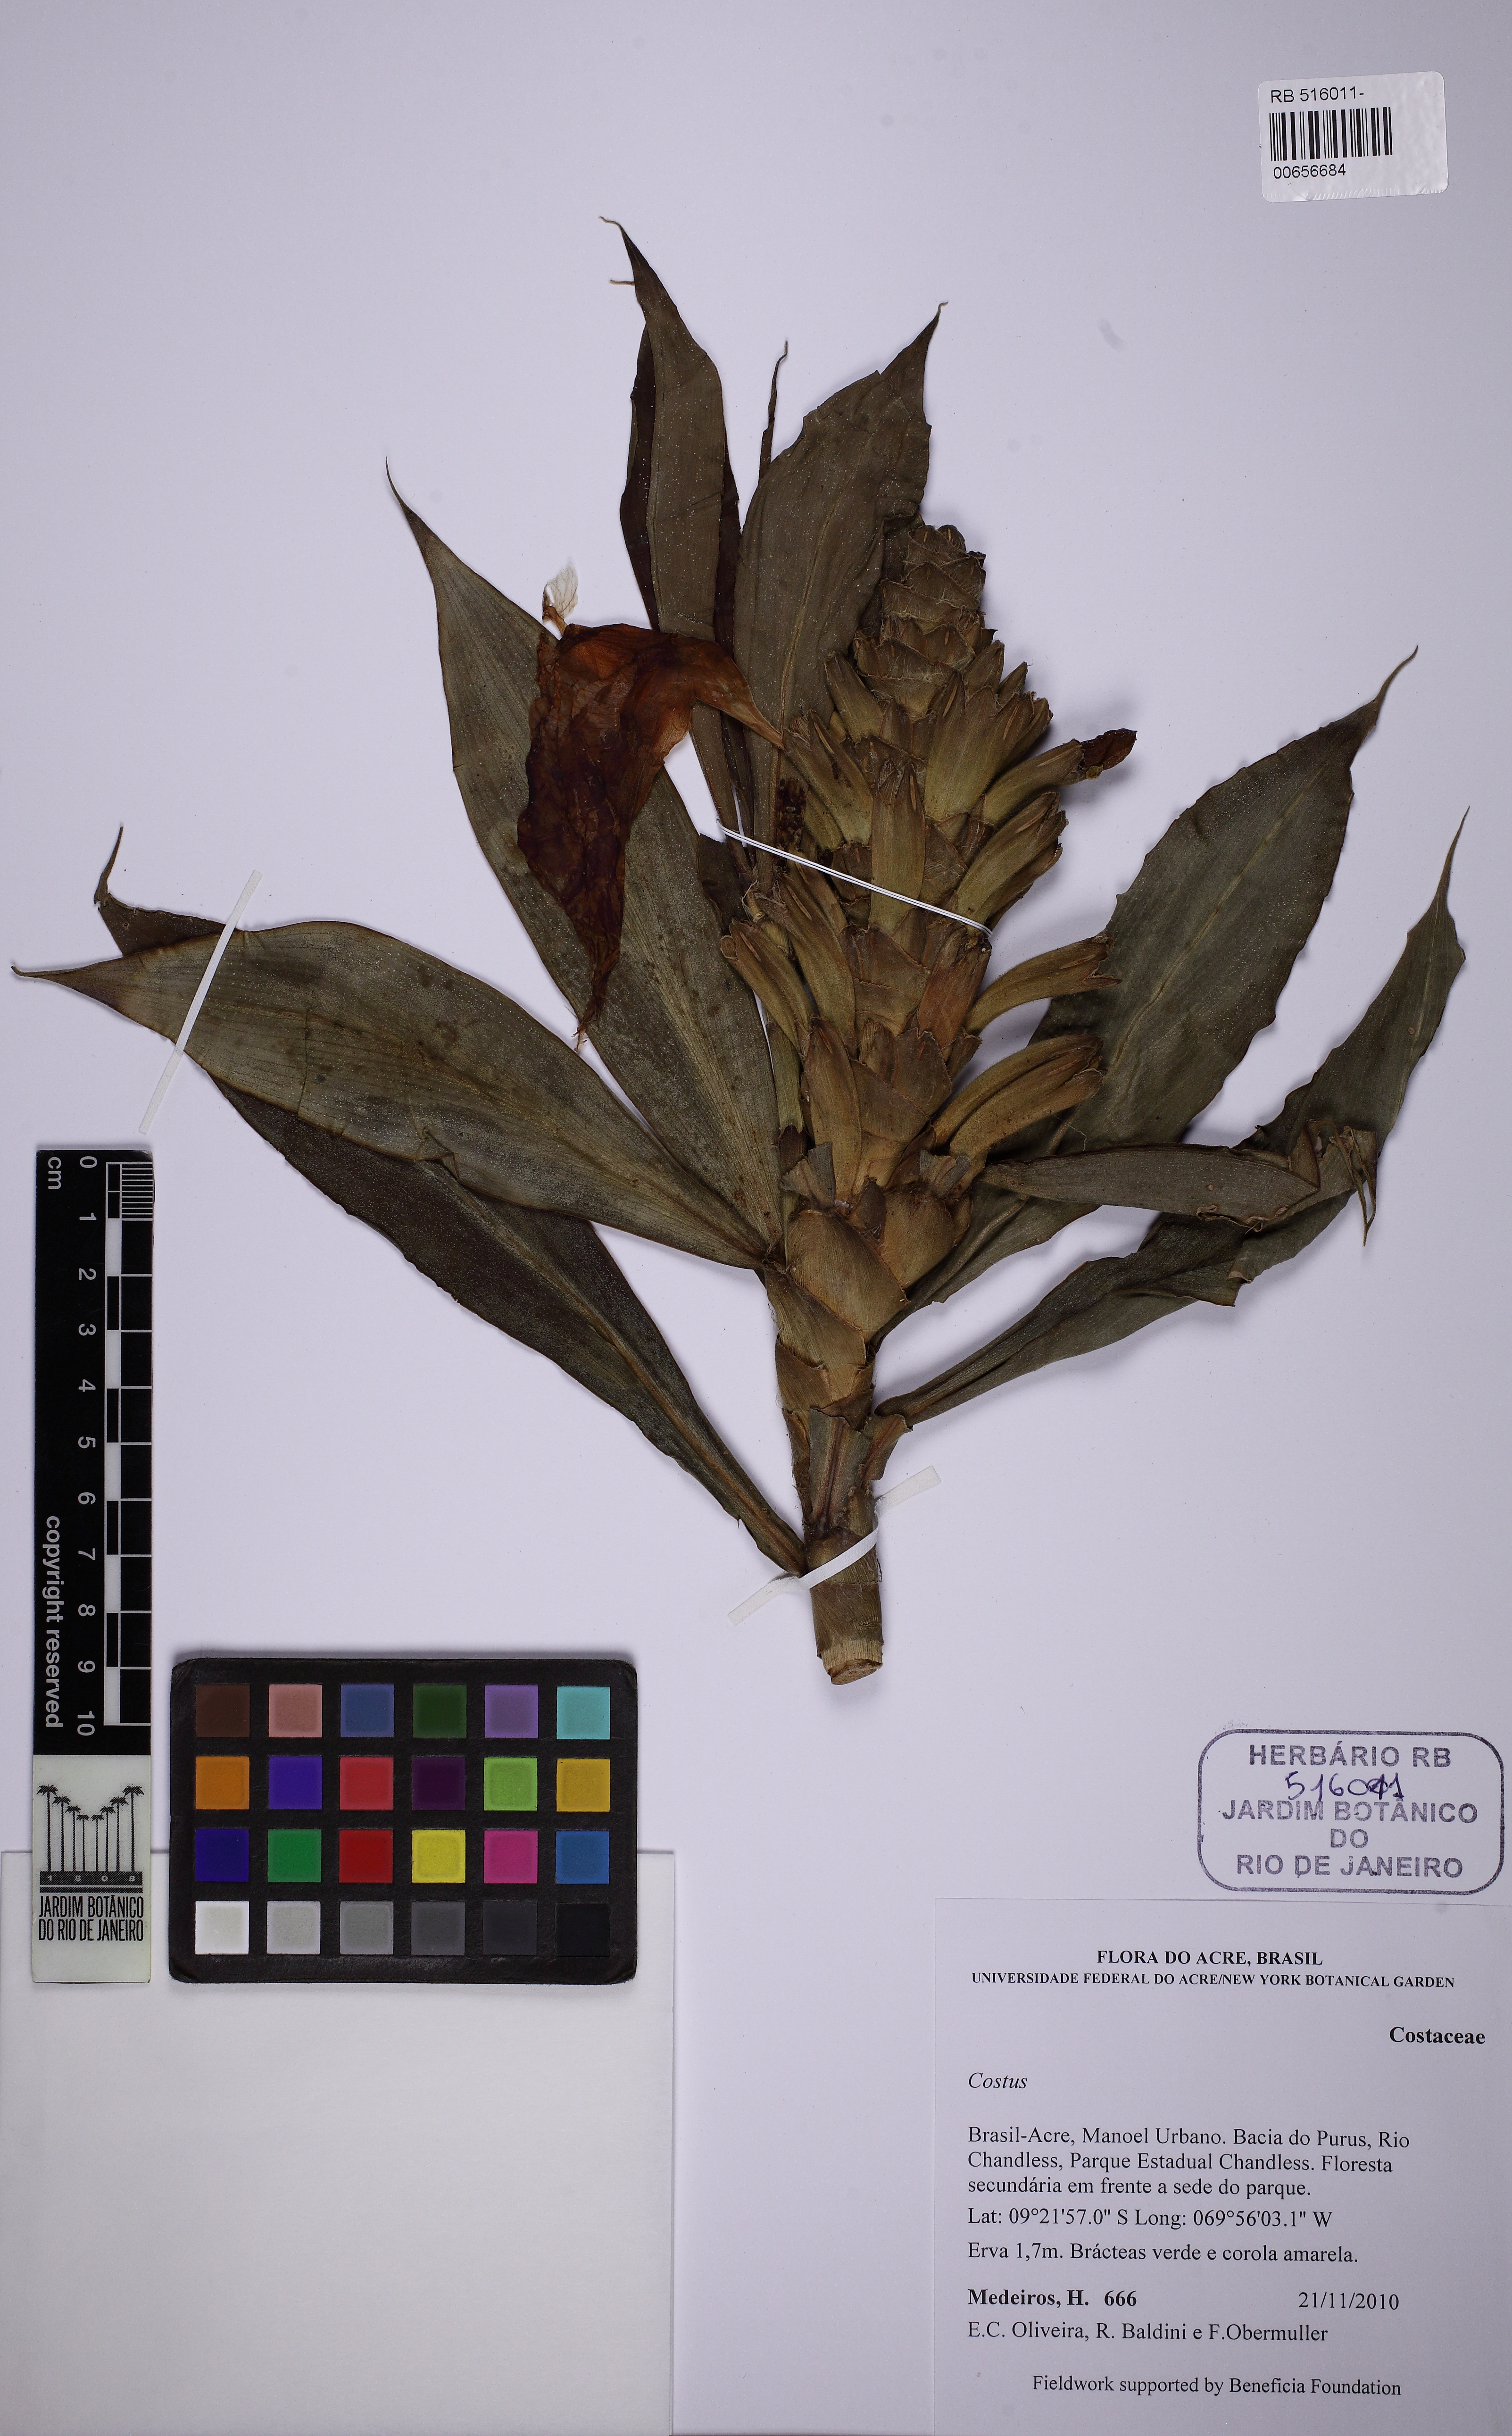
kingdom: Plantae
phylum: Tracheophyta
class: Liliopsida
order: Zingiberales
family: Costaceae
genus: Dimerocostus
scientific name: Dimerocostus strobilaceus
